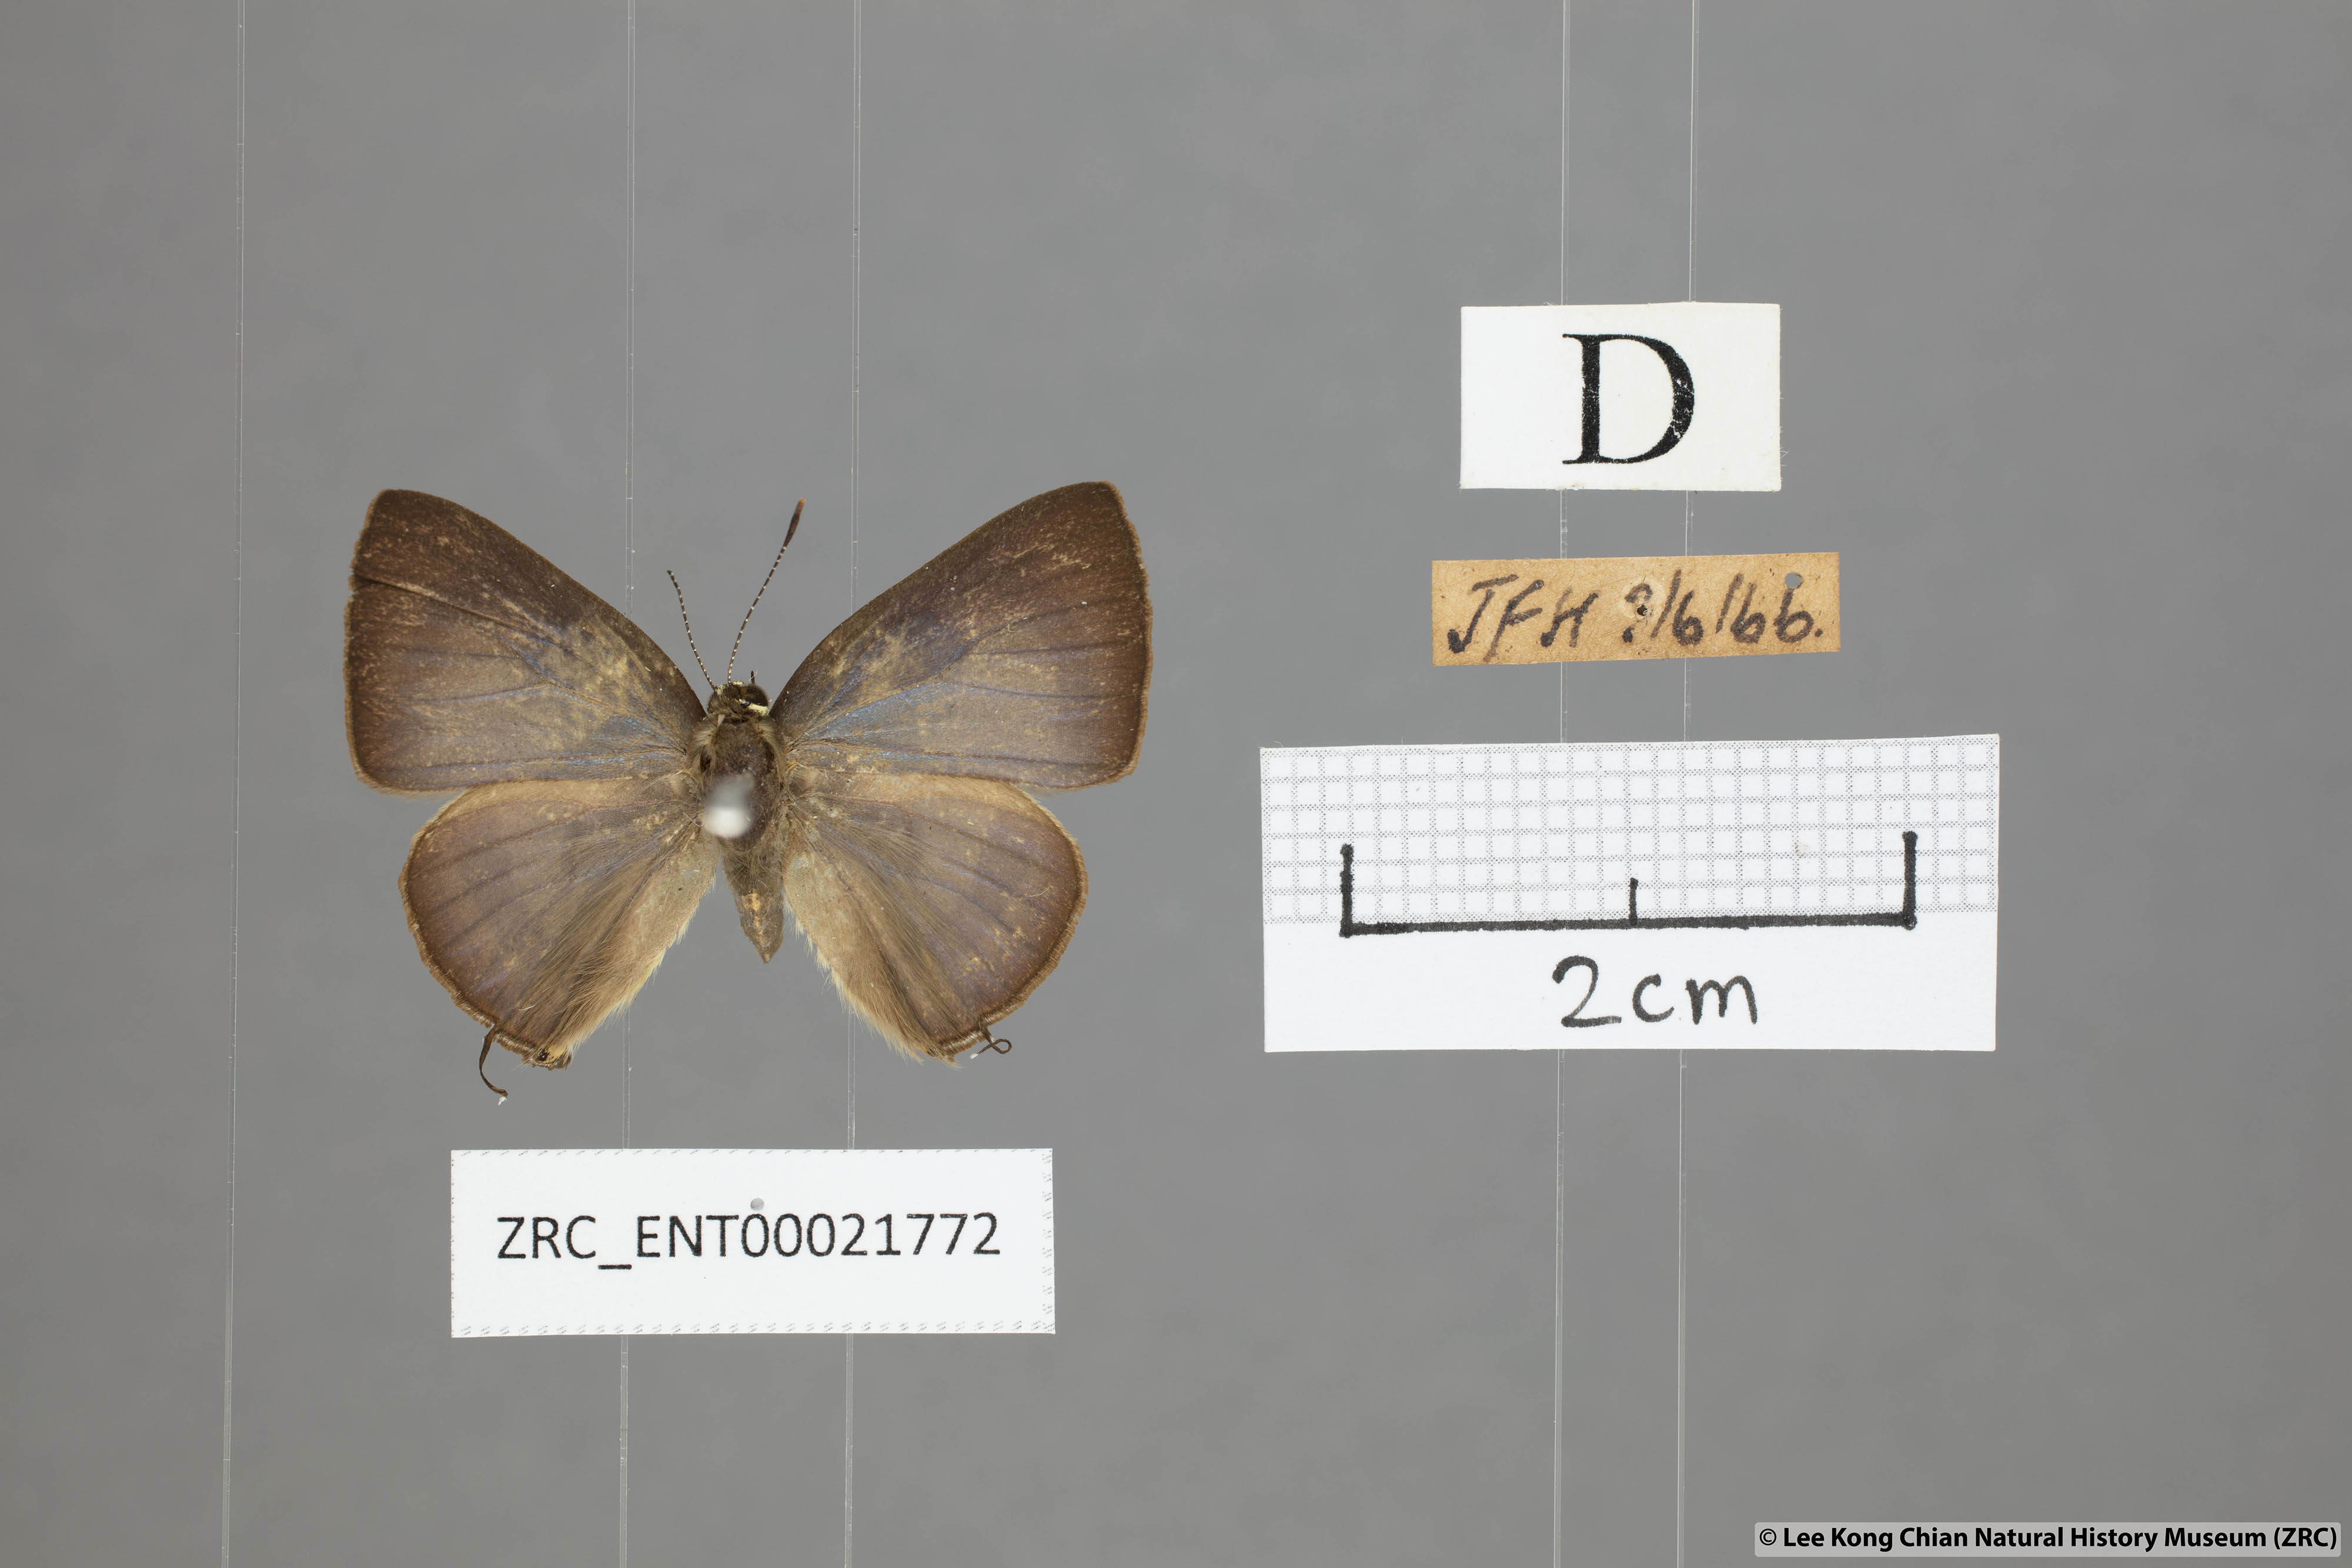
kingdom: Animalia
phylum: Arthropoda
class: Insecta
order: Lepidoptera
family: Lycaenidae
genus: Rapala
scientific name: Rapala
